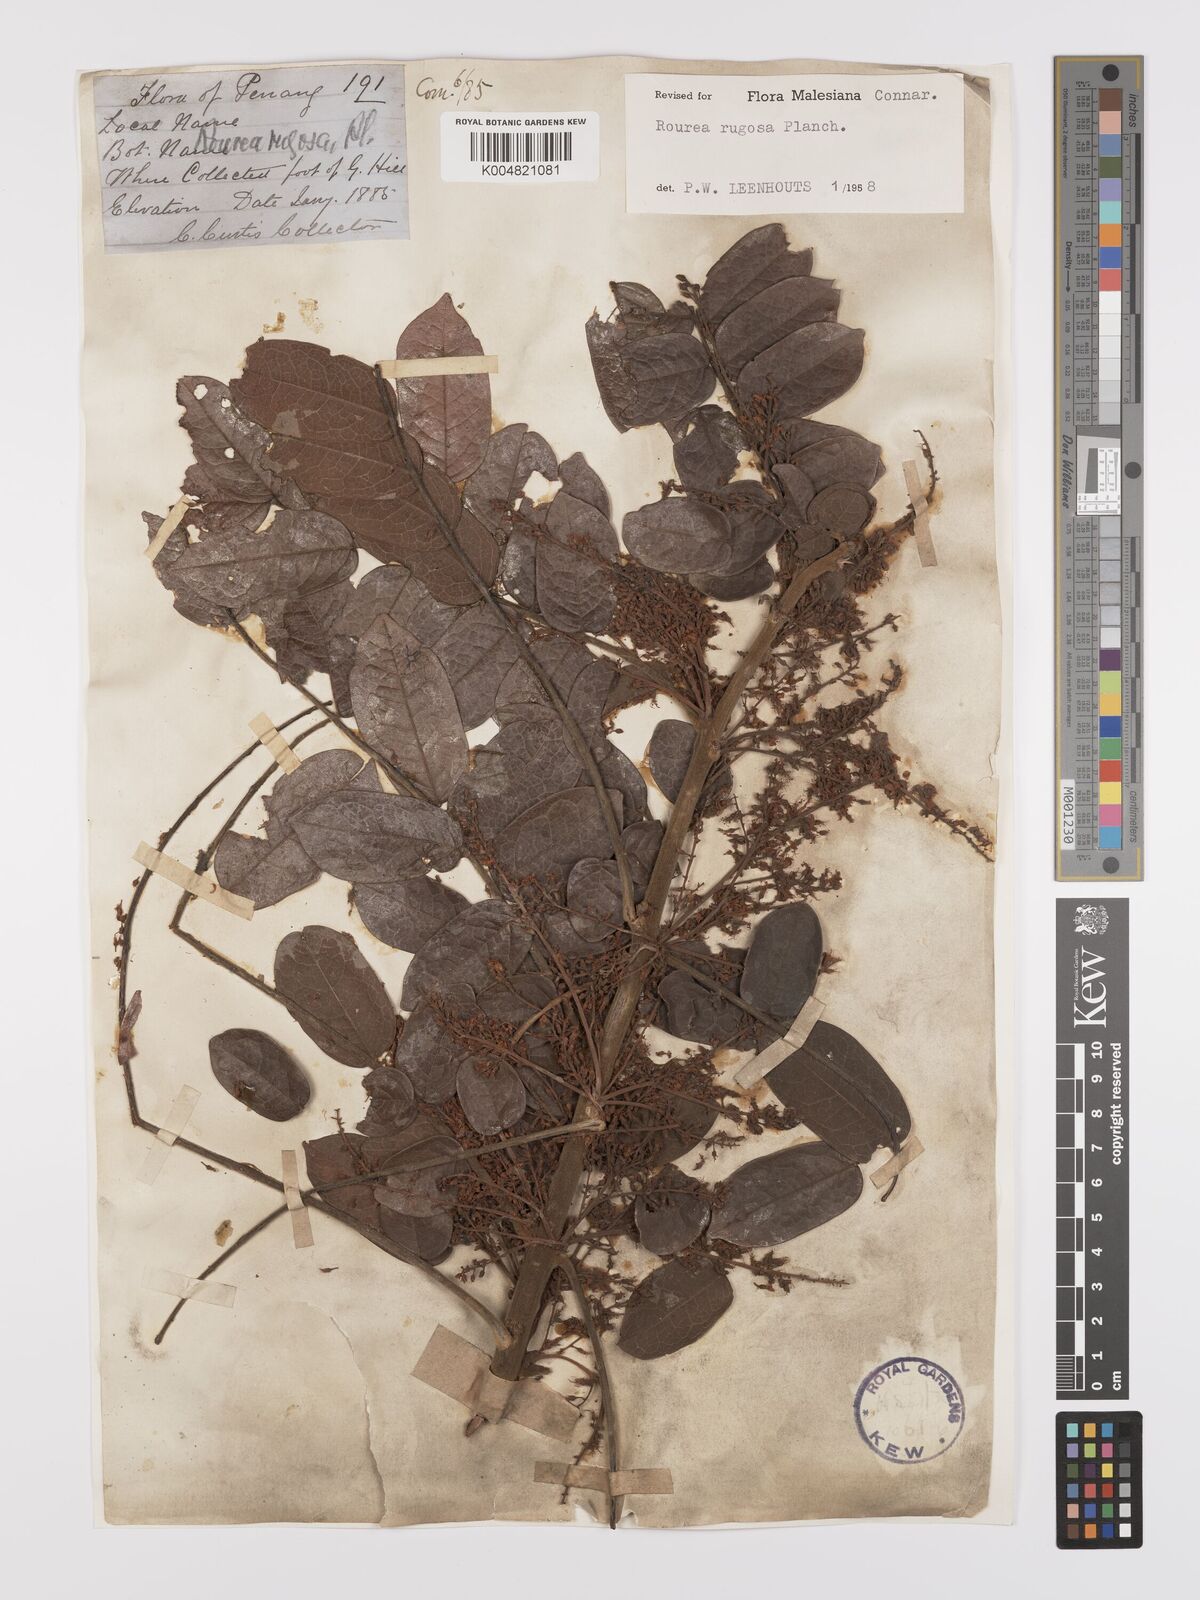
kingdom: Plantae
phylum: Tracheophyta
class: Magnoliopsida
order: Oxalidales
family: Connaraceae
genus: Rourea
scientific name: Rourea rugosa
